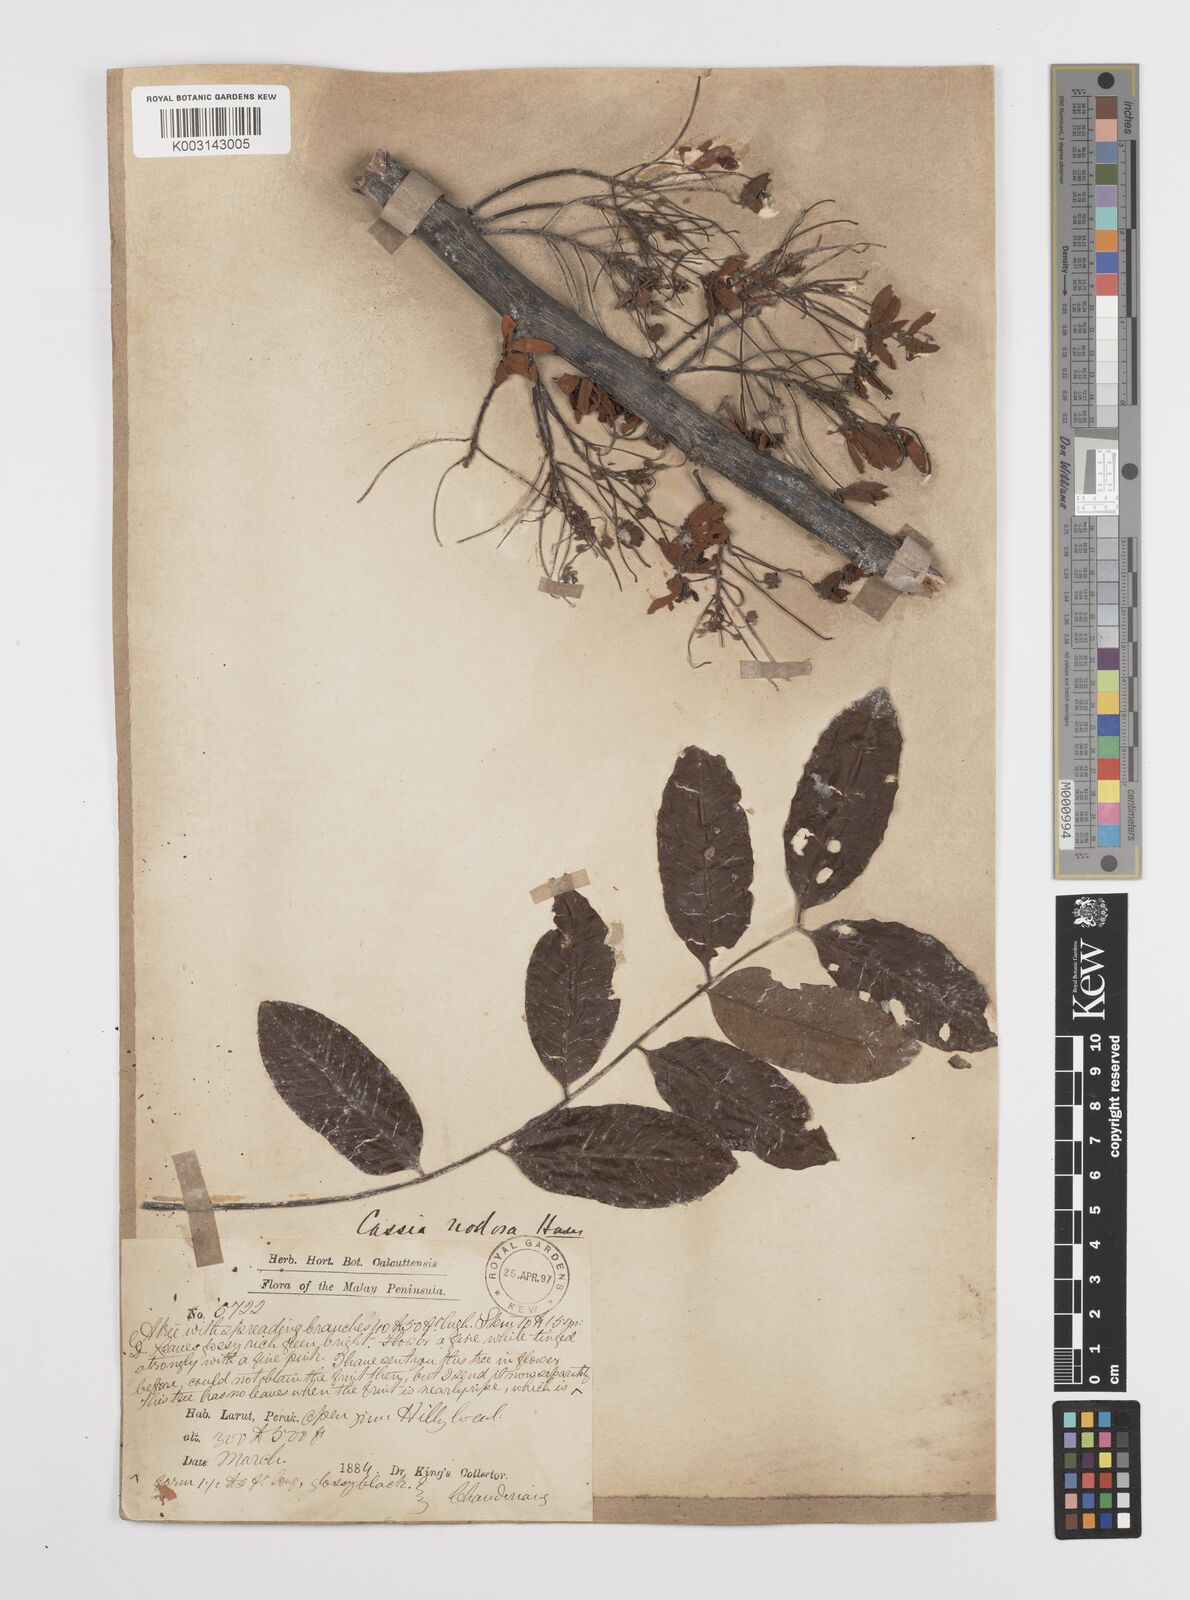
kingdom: Plantae
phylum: Tracheophyta
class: Magnoliopsida
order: Fabales
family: Fabaceae
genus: Cassia
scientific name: Cassia javanica
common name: Apple blossom
